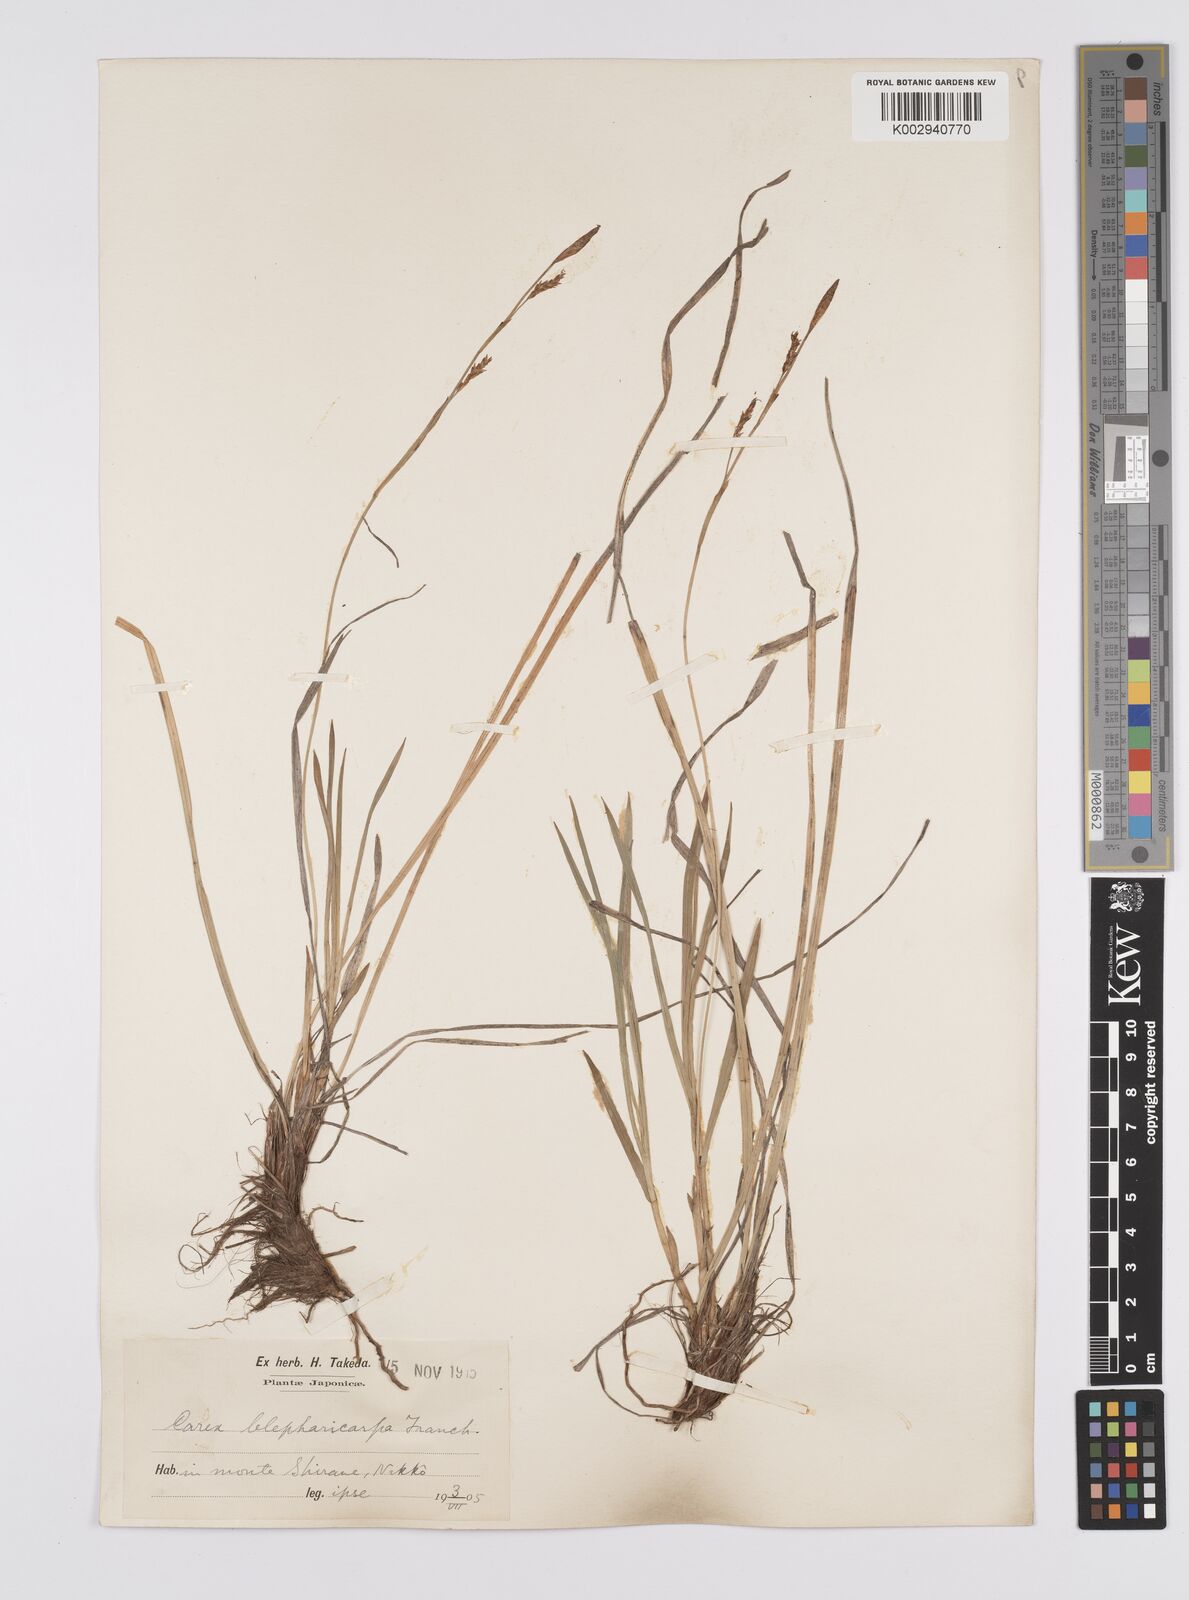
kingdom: Plantae
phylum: Tracheophyta
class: Liliopsida
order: Poales
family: Cyperaceae
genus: Carex
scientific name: Carex blepharicarpa
